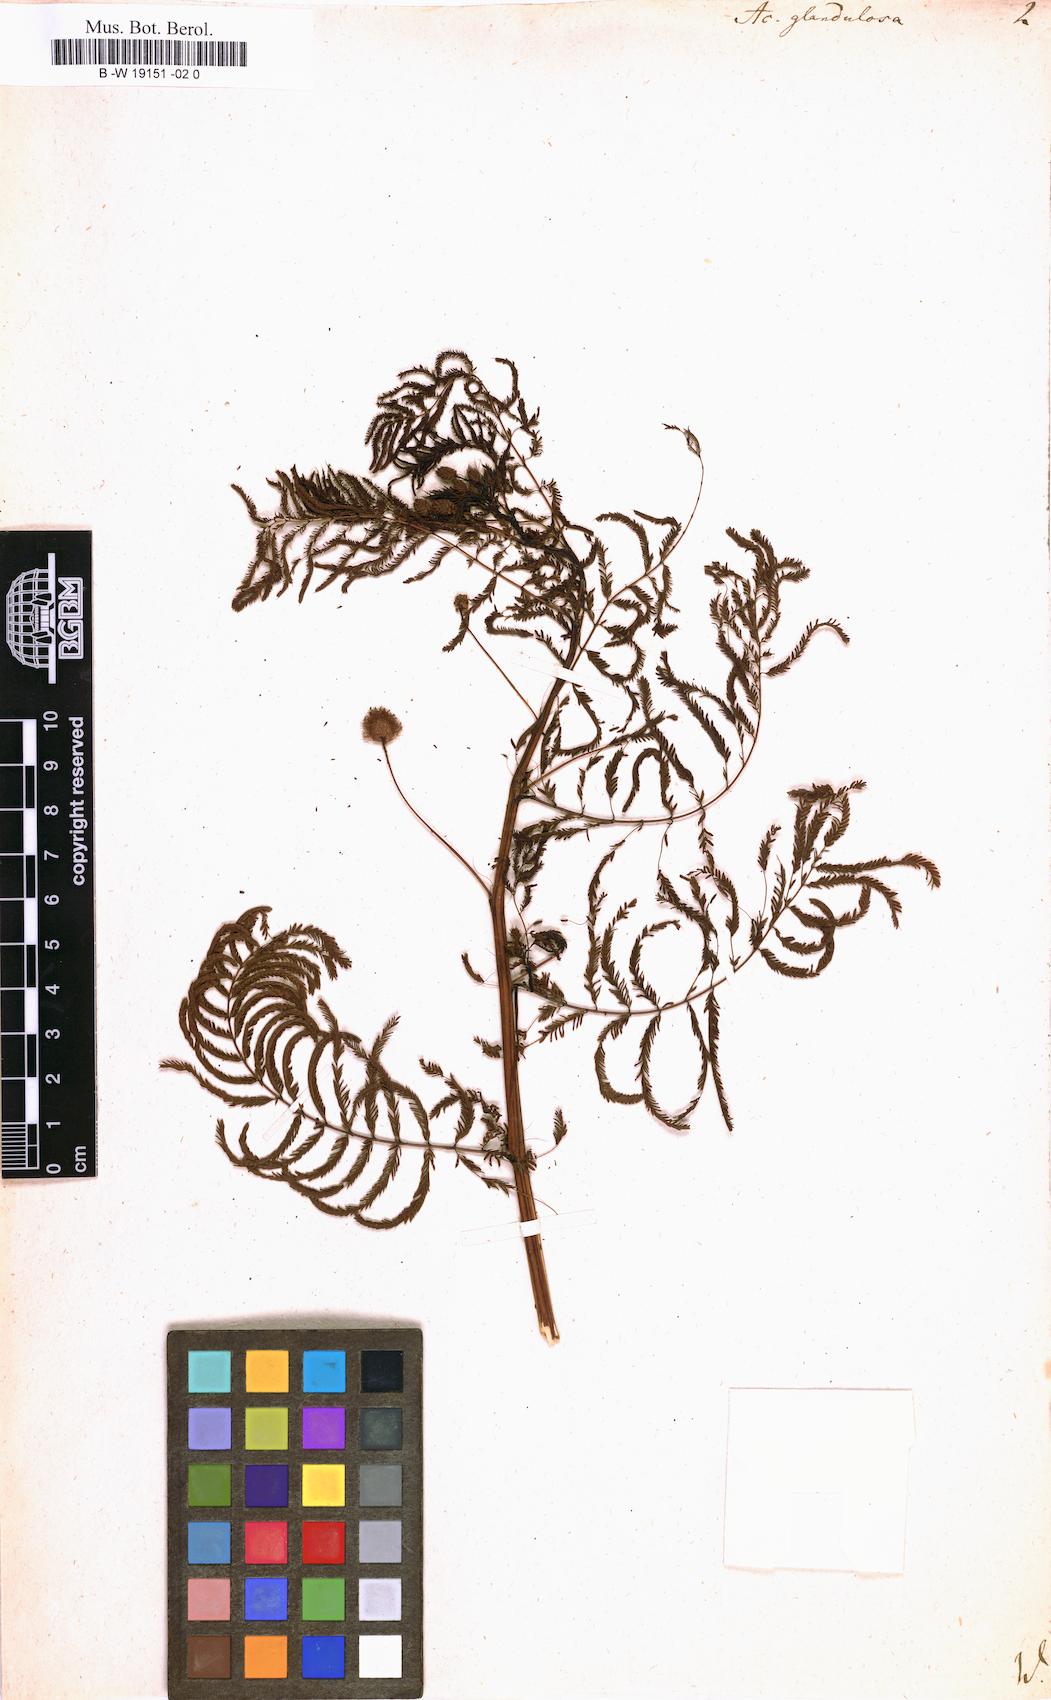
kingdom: Plantae
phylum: Tracheophyta
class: Magnoliopsida
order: Fabales
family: Fabaceae
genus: Desmanthus
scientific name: Desmanthus illinoensis
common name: Illinois bundle-flower
